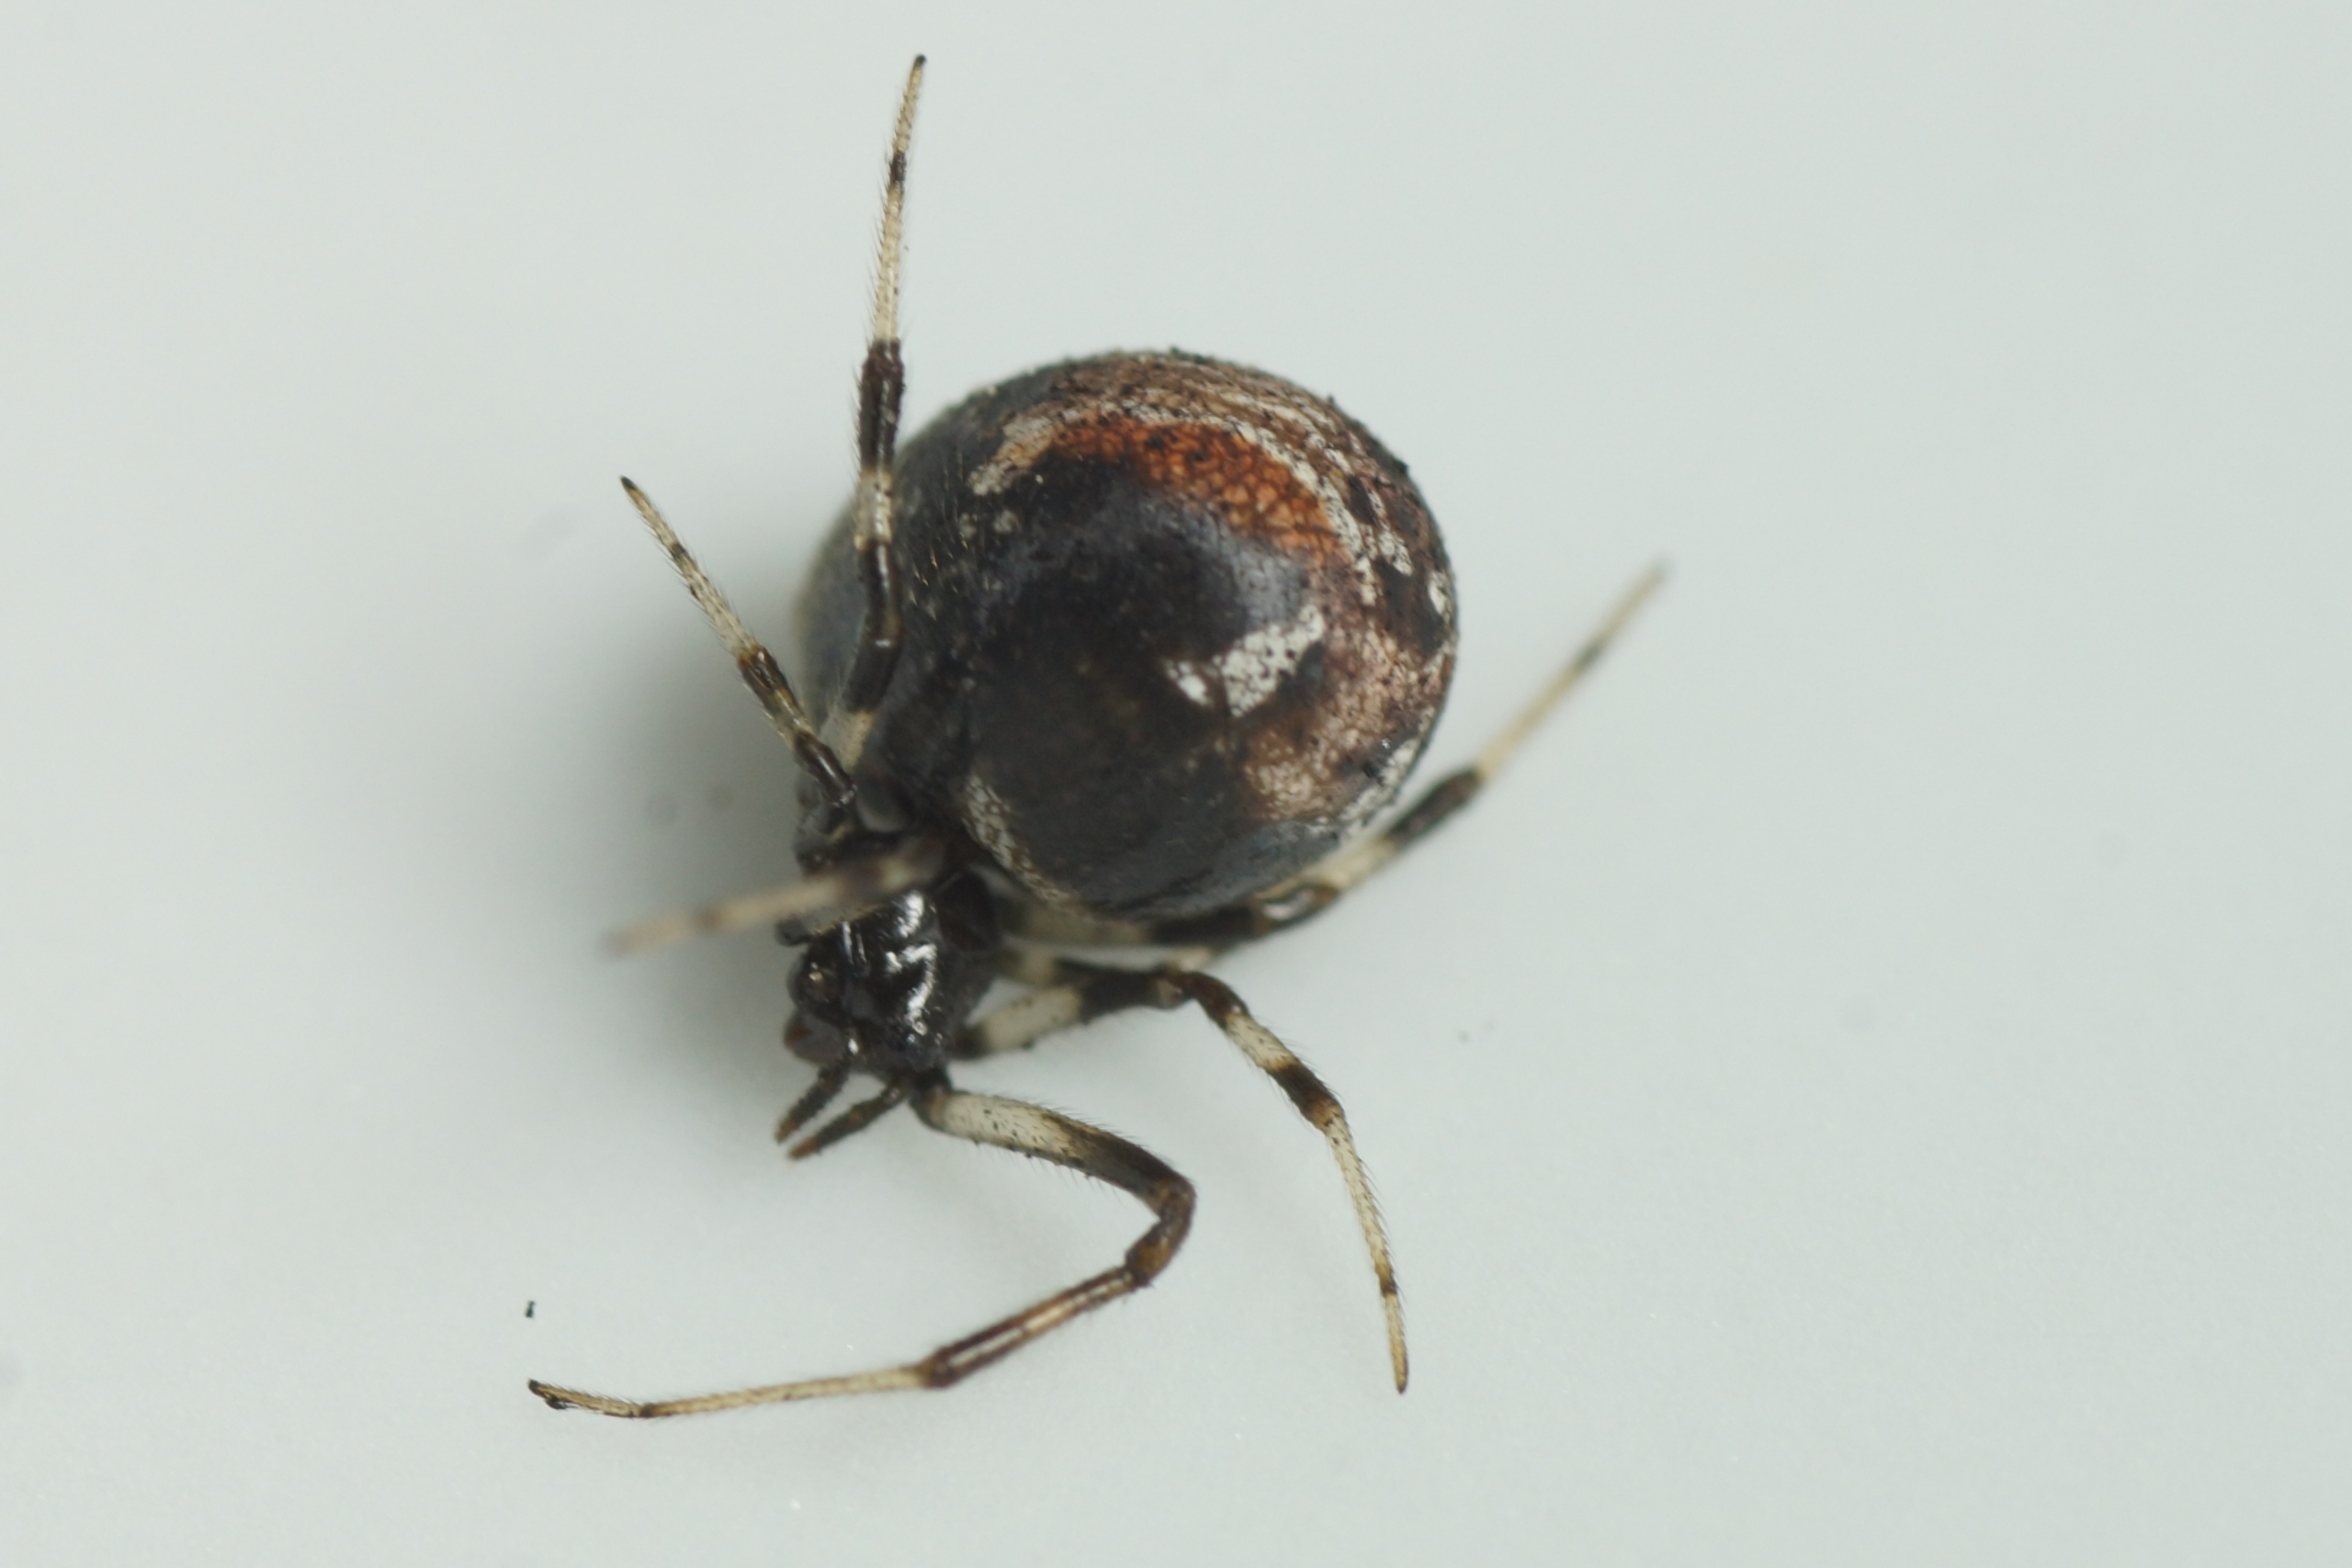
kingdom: Animalia
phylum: Arthropoda
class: Arachnida
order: Araneae
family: Theridiidae
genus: Parasteatoda
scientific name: Parasteatoda lunata
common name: Bladhyttespinder
